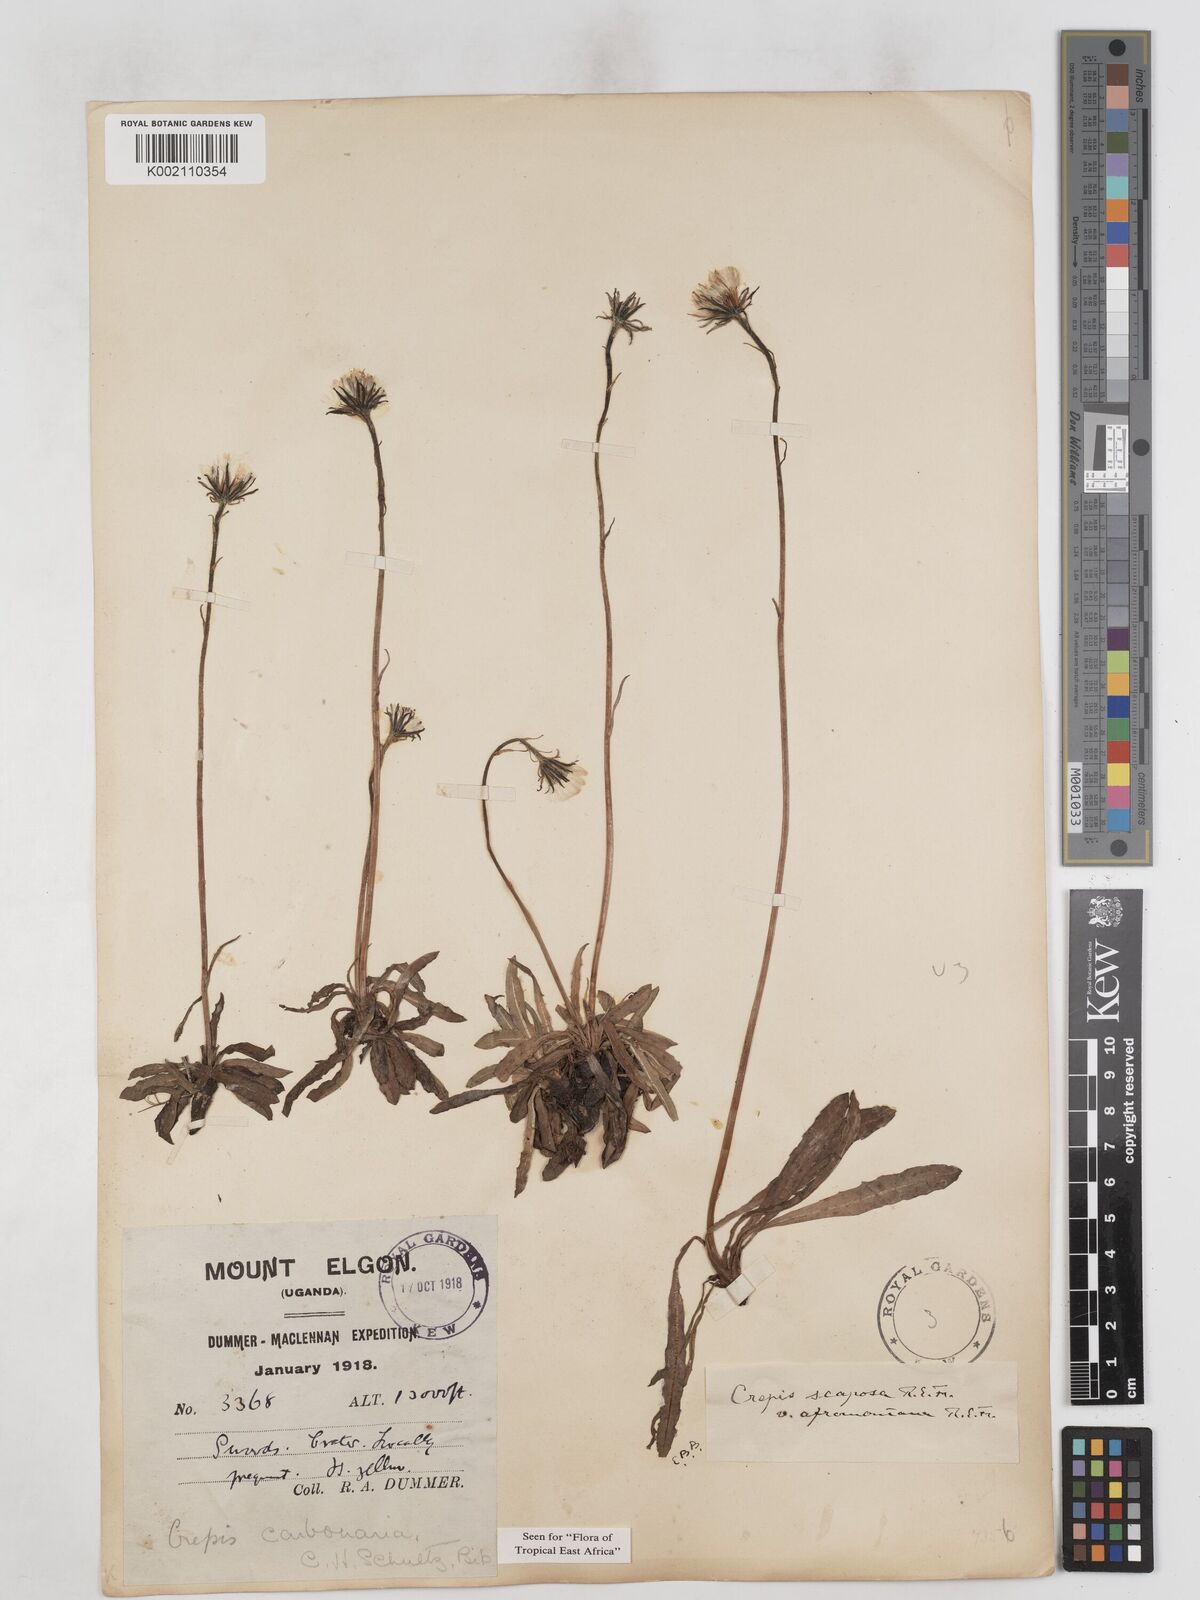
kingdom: Plantae
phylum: Tracheophyta
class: Magnoliopsida
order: Asterales
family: Asteraceae
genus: Crepis
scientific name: Crepis carbonaria
